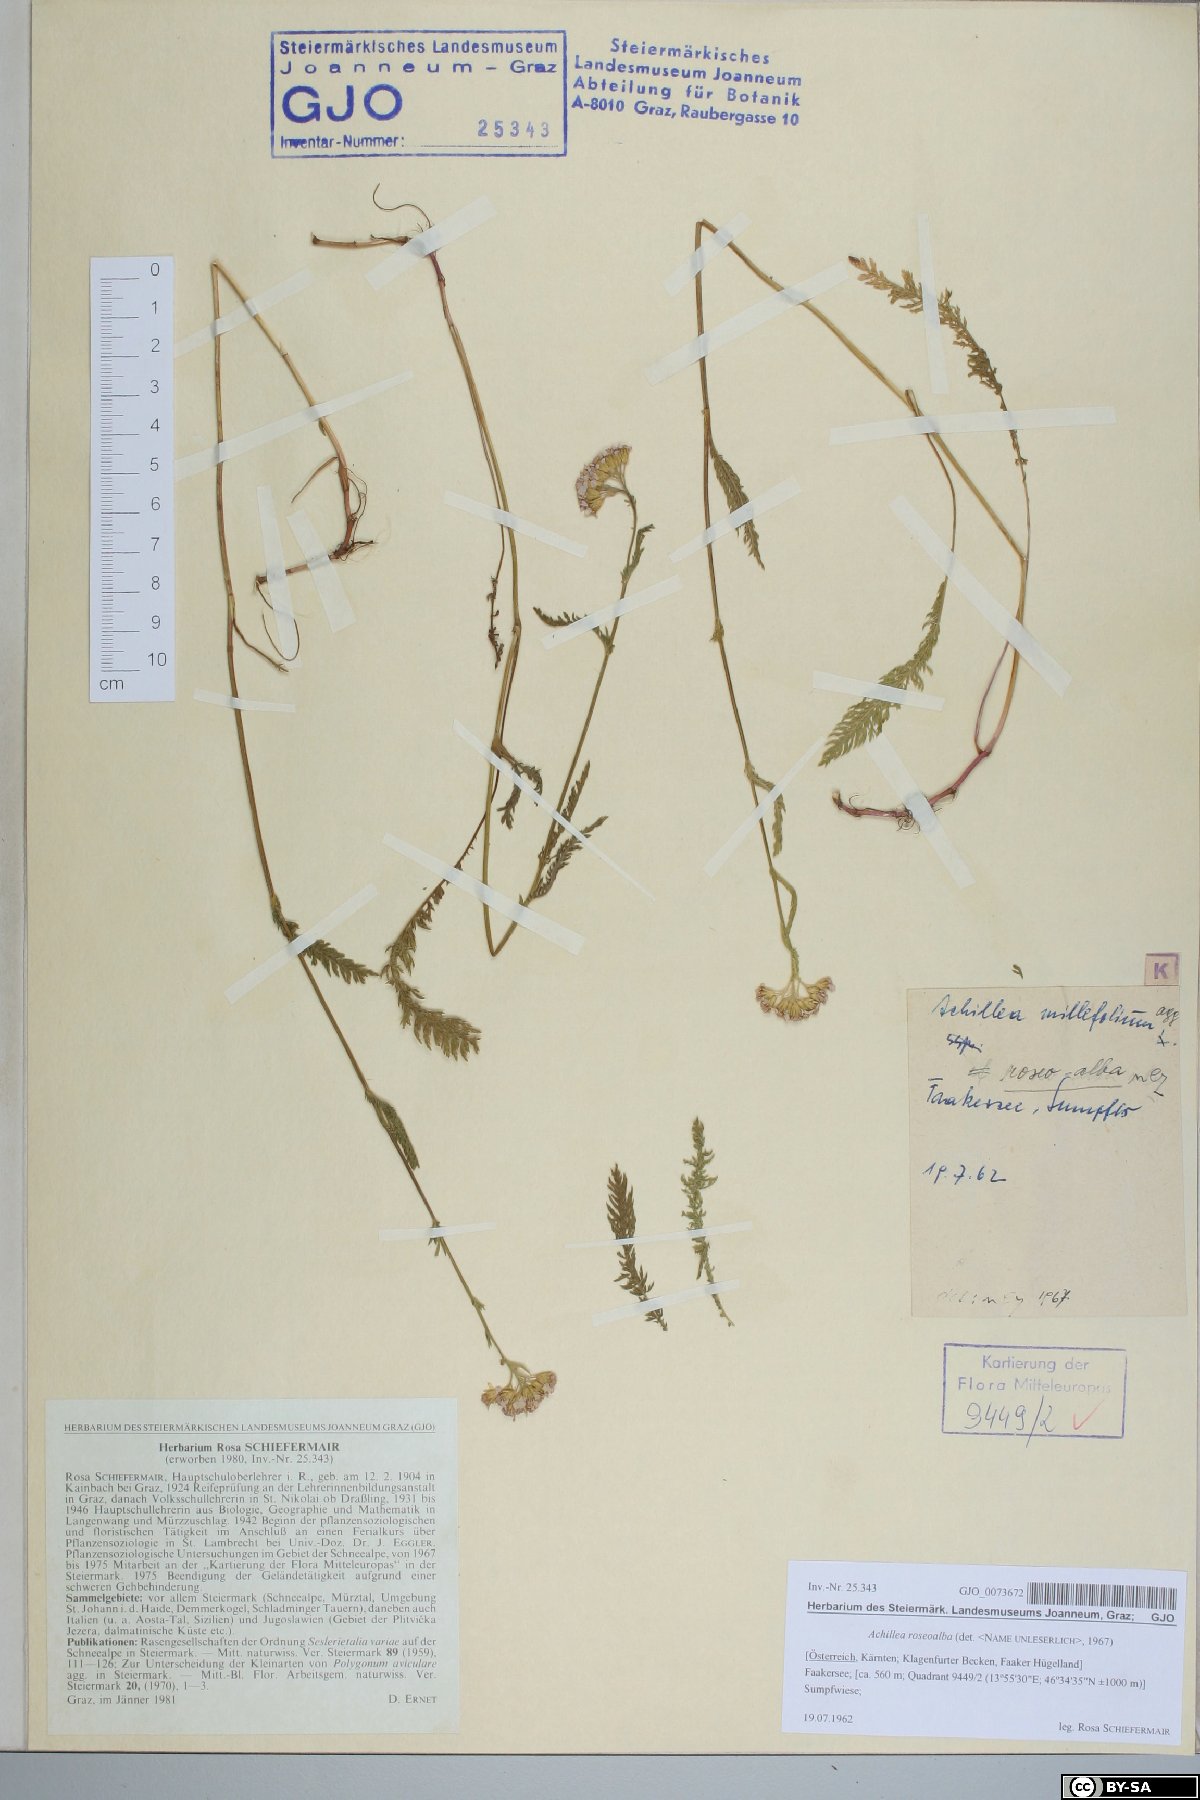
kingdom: Plantae
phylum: Tracheophyta
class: Magnoliopsida
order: Asterales
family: Asteraceae
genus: Achillea
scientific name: Achillea roseoalba
